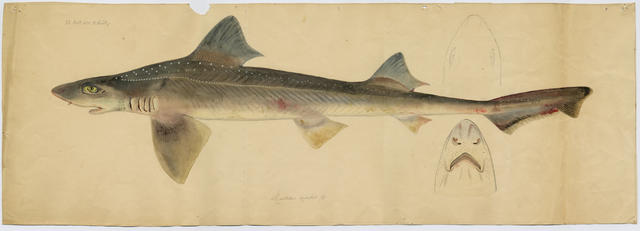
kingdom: Animalia
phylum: Chordata
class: Elasmobranchii
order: Carcharhiniformes
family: Triakidae
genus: Mustelus
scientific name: Mustelus asterias
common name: Starry smooth hound
